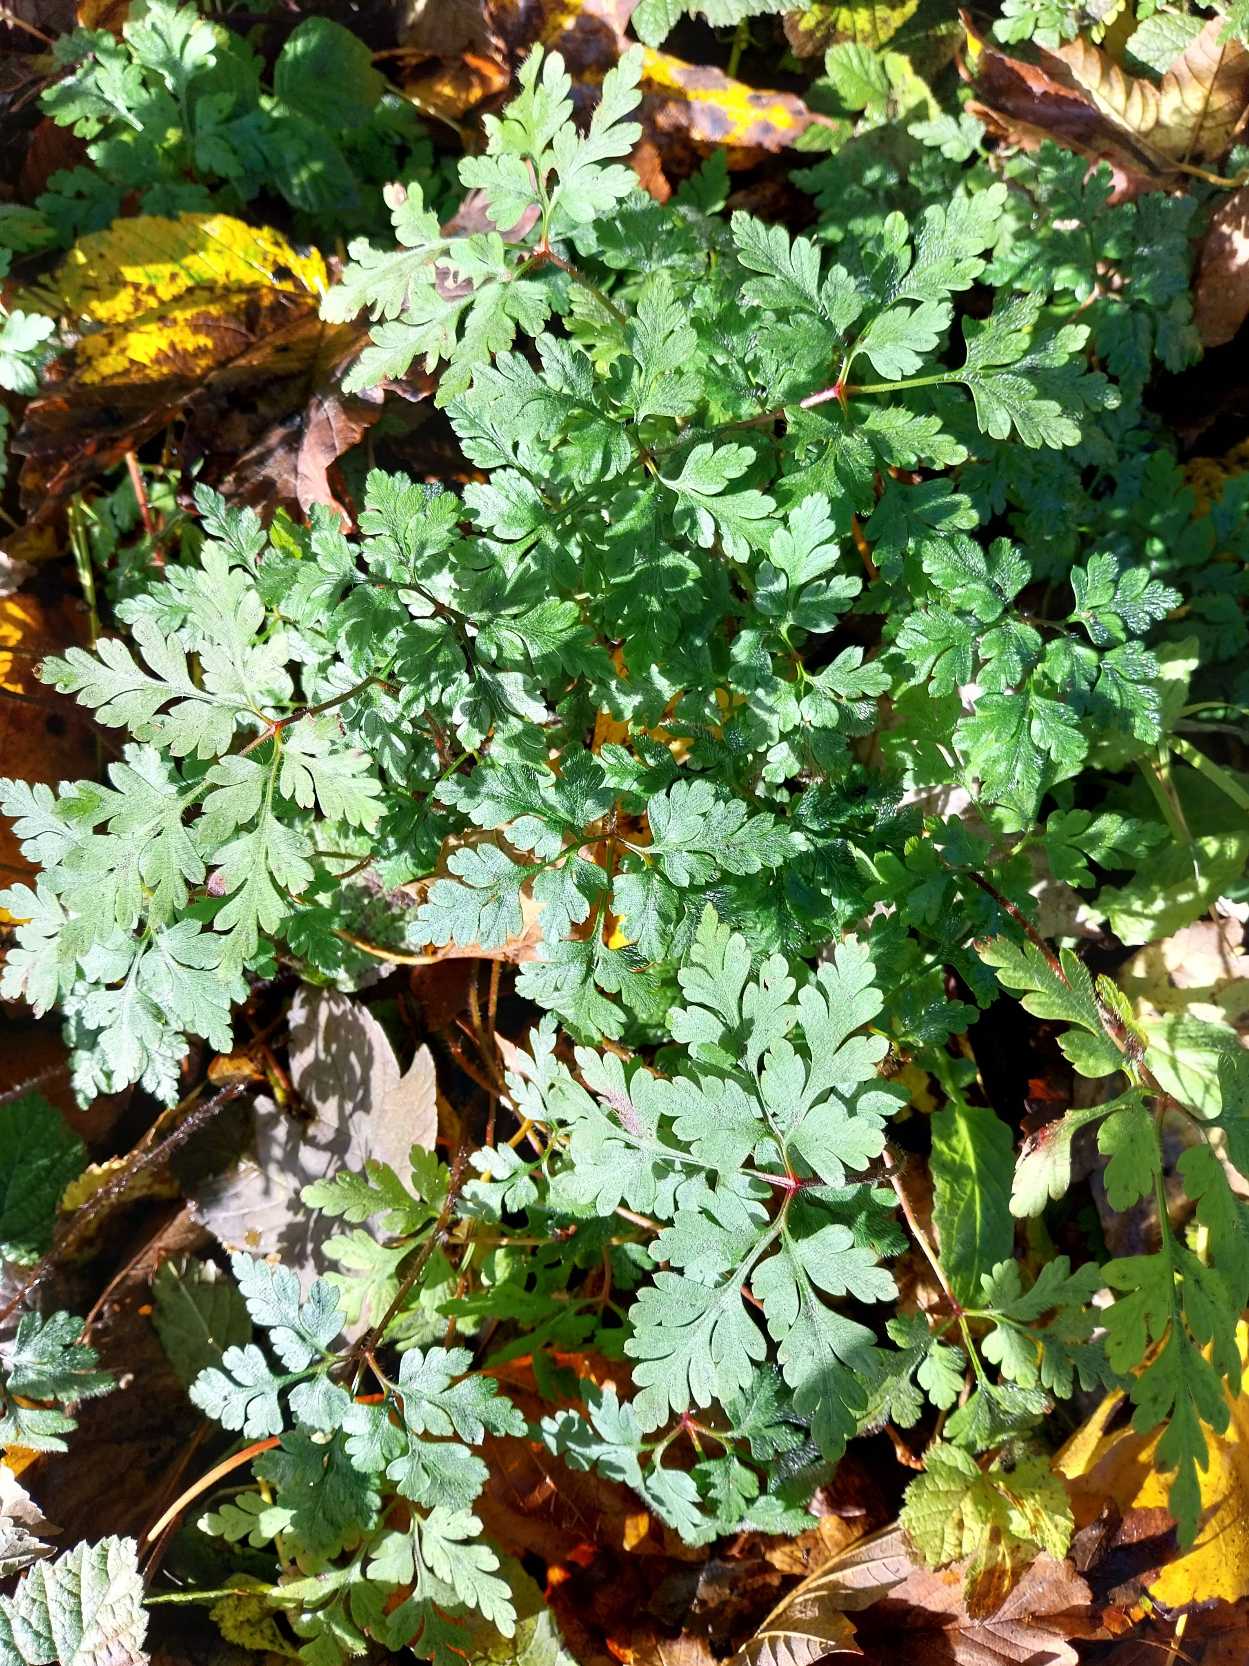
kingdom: Plantae
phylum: Tracheophyta
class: Magnoliopsida
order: Geraniales
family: Geraniaceae
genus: Geranium
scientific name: Geranium robertianum
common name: Stinkende storkenæb
